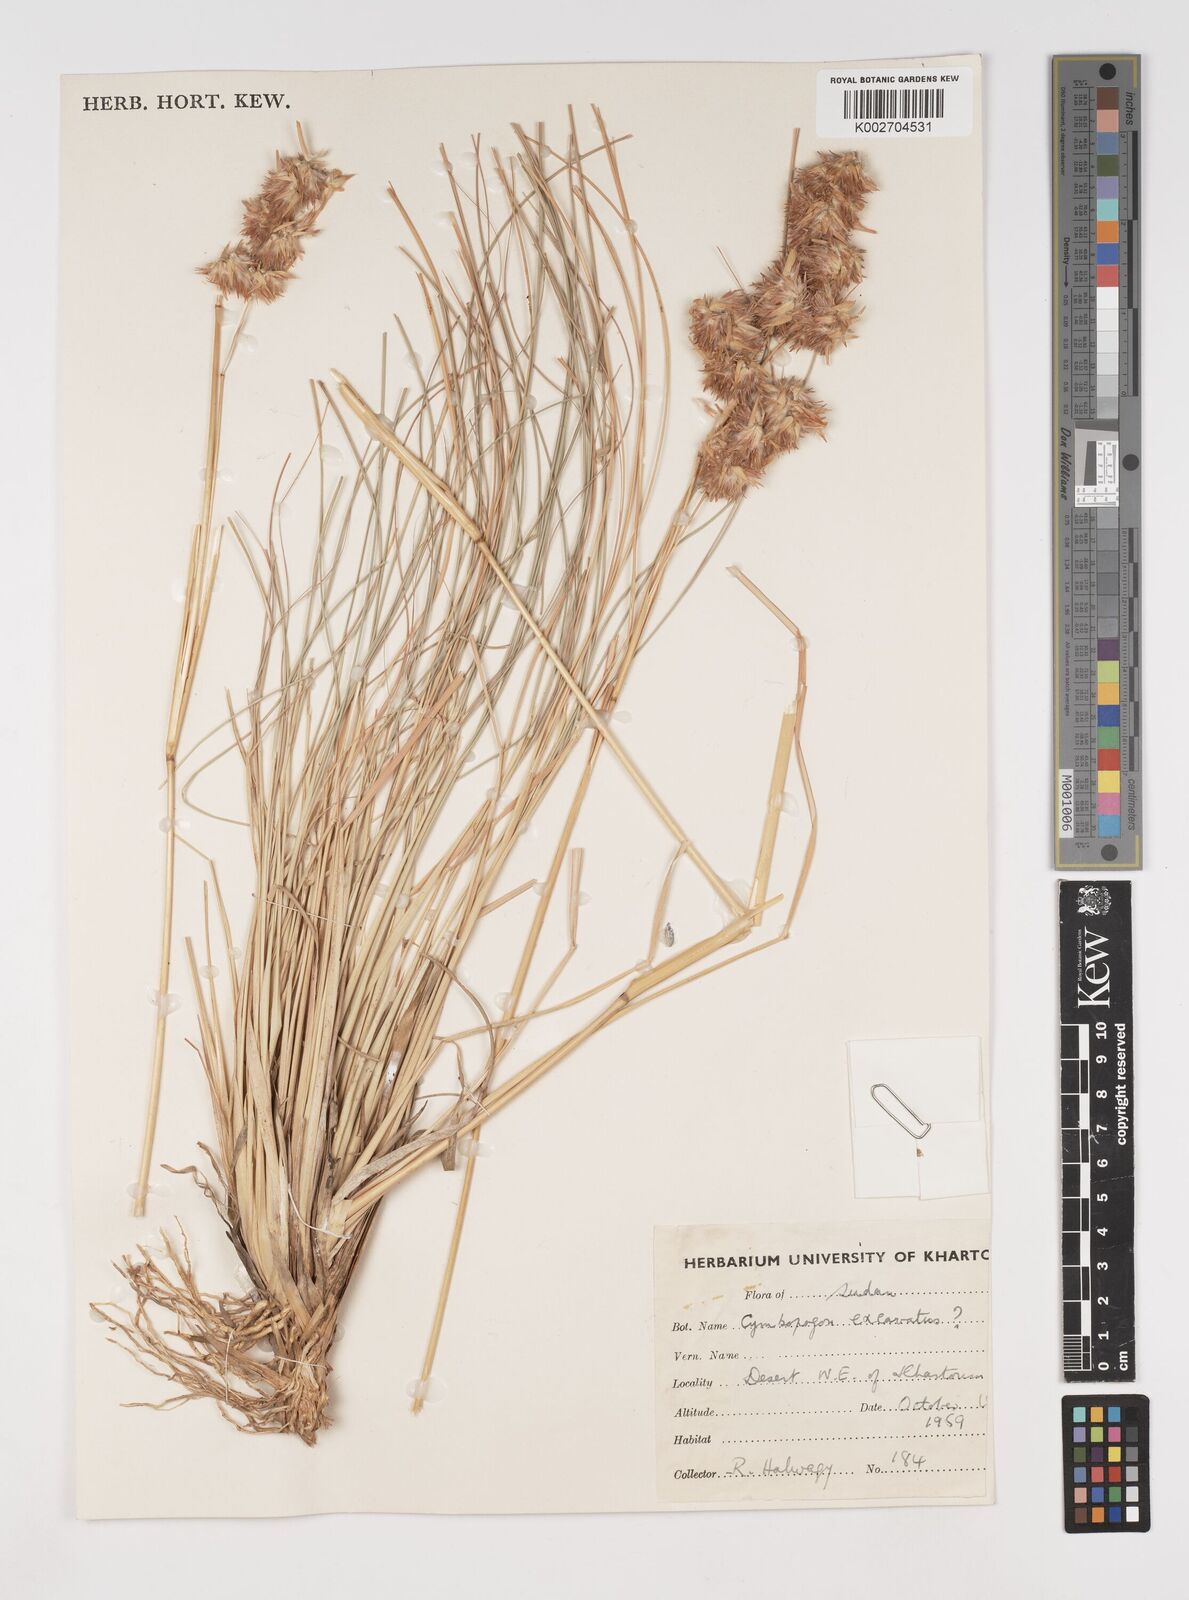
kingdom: Plantae
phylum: Tracheophyta
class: Liliopsida
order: Poales
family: Poaceae
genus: Cymbopogon
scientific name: Cymbopogon schoenanthus
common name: Geranium grass
